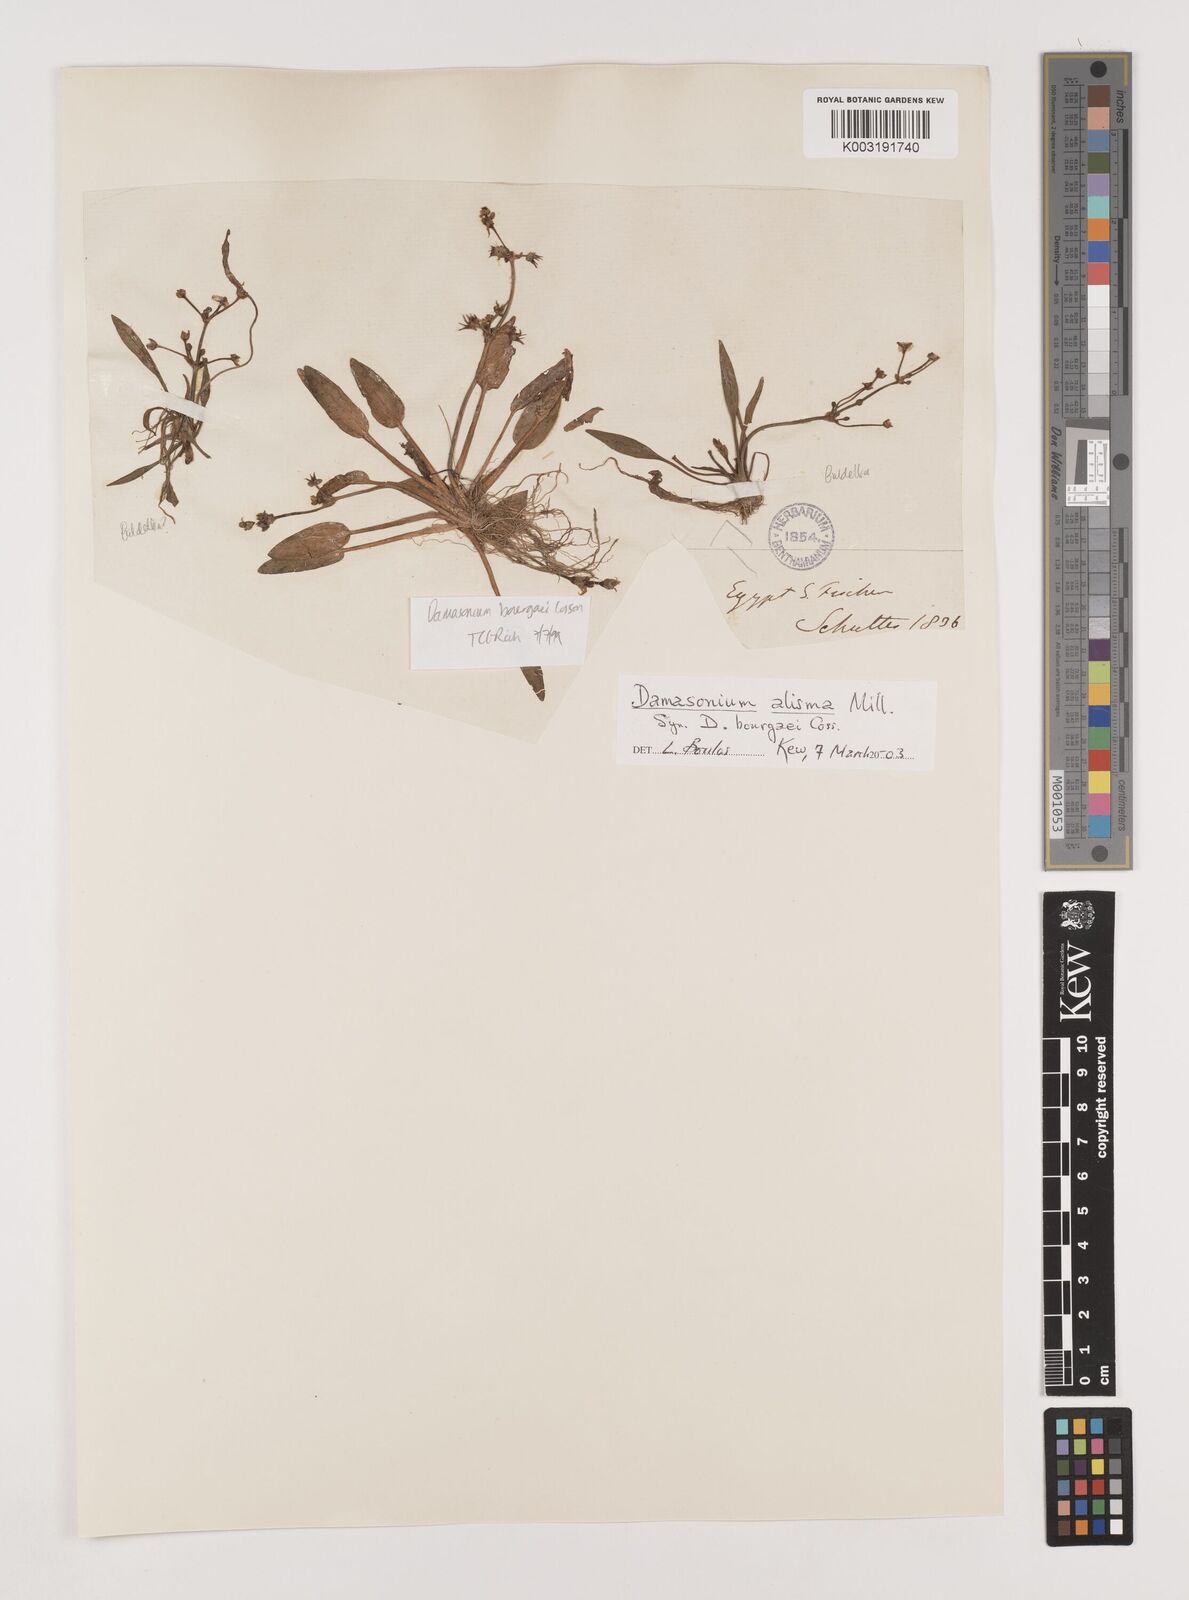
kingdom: Plantae
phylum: Tracheophyta
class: Liliopsida
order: Alismatales
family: Alismataceae
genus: Damasonium
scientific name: Damasonium alisma
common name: Starfruit
